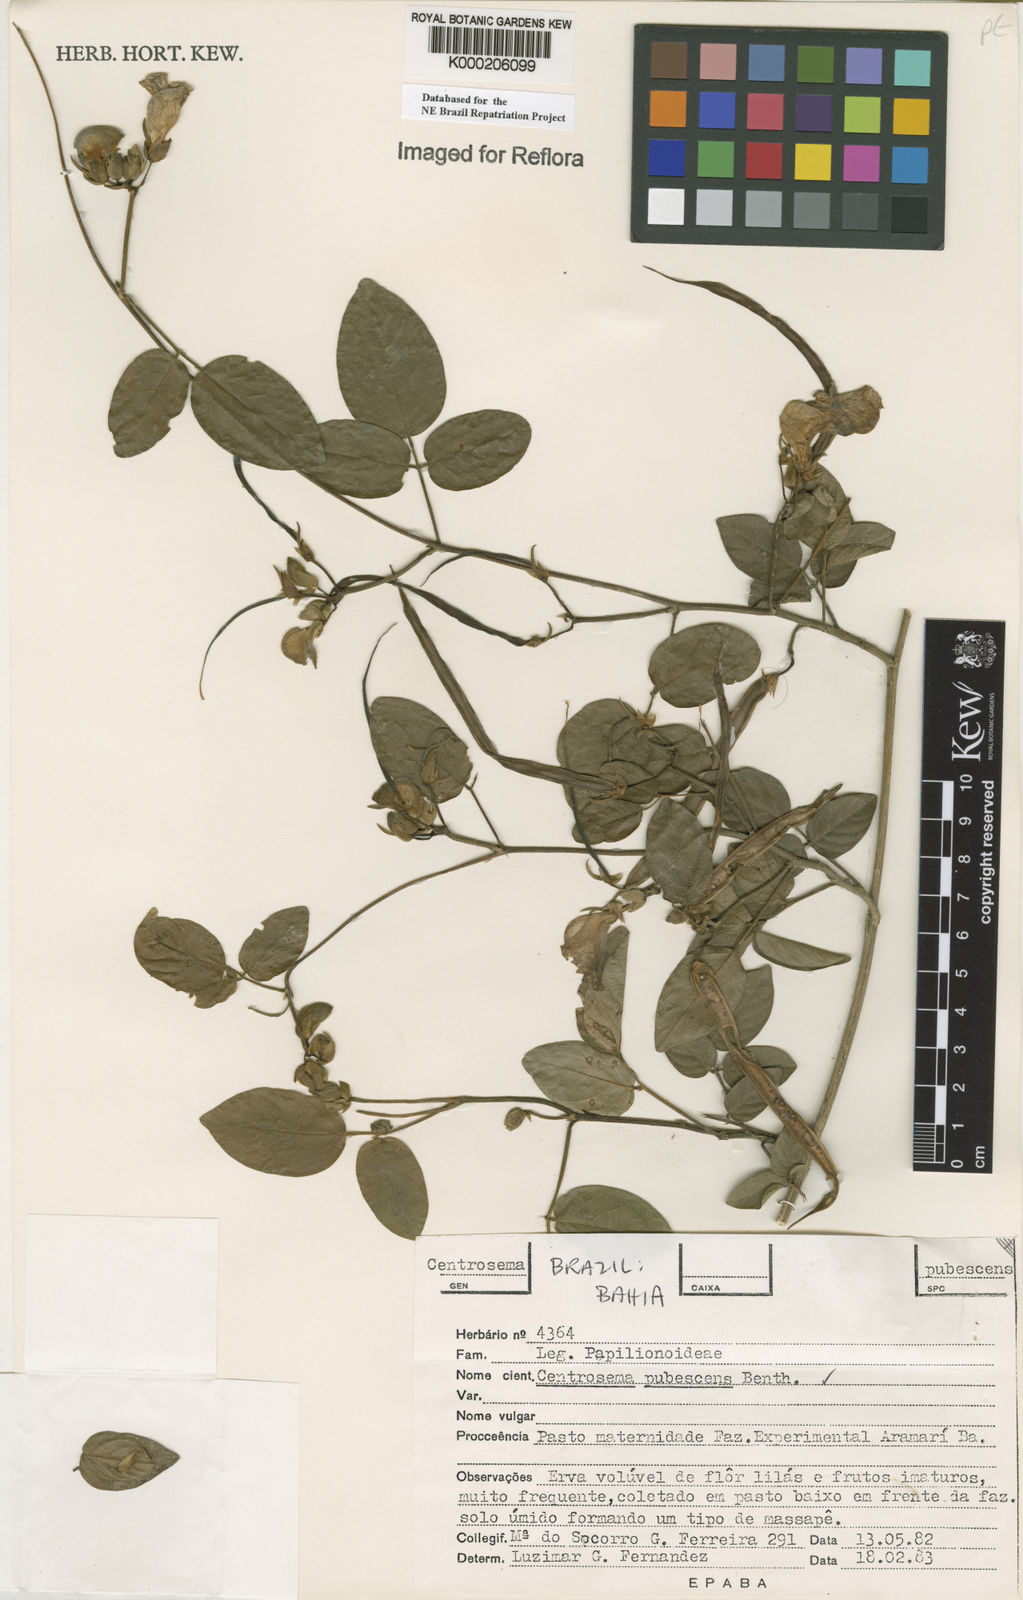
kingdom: Plantae
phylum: Tracheophyta
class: Magnoliopsida
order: Fabales
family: Fabaceae
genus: Centrosema
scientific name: Centrosema pubescens
